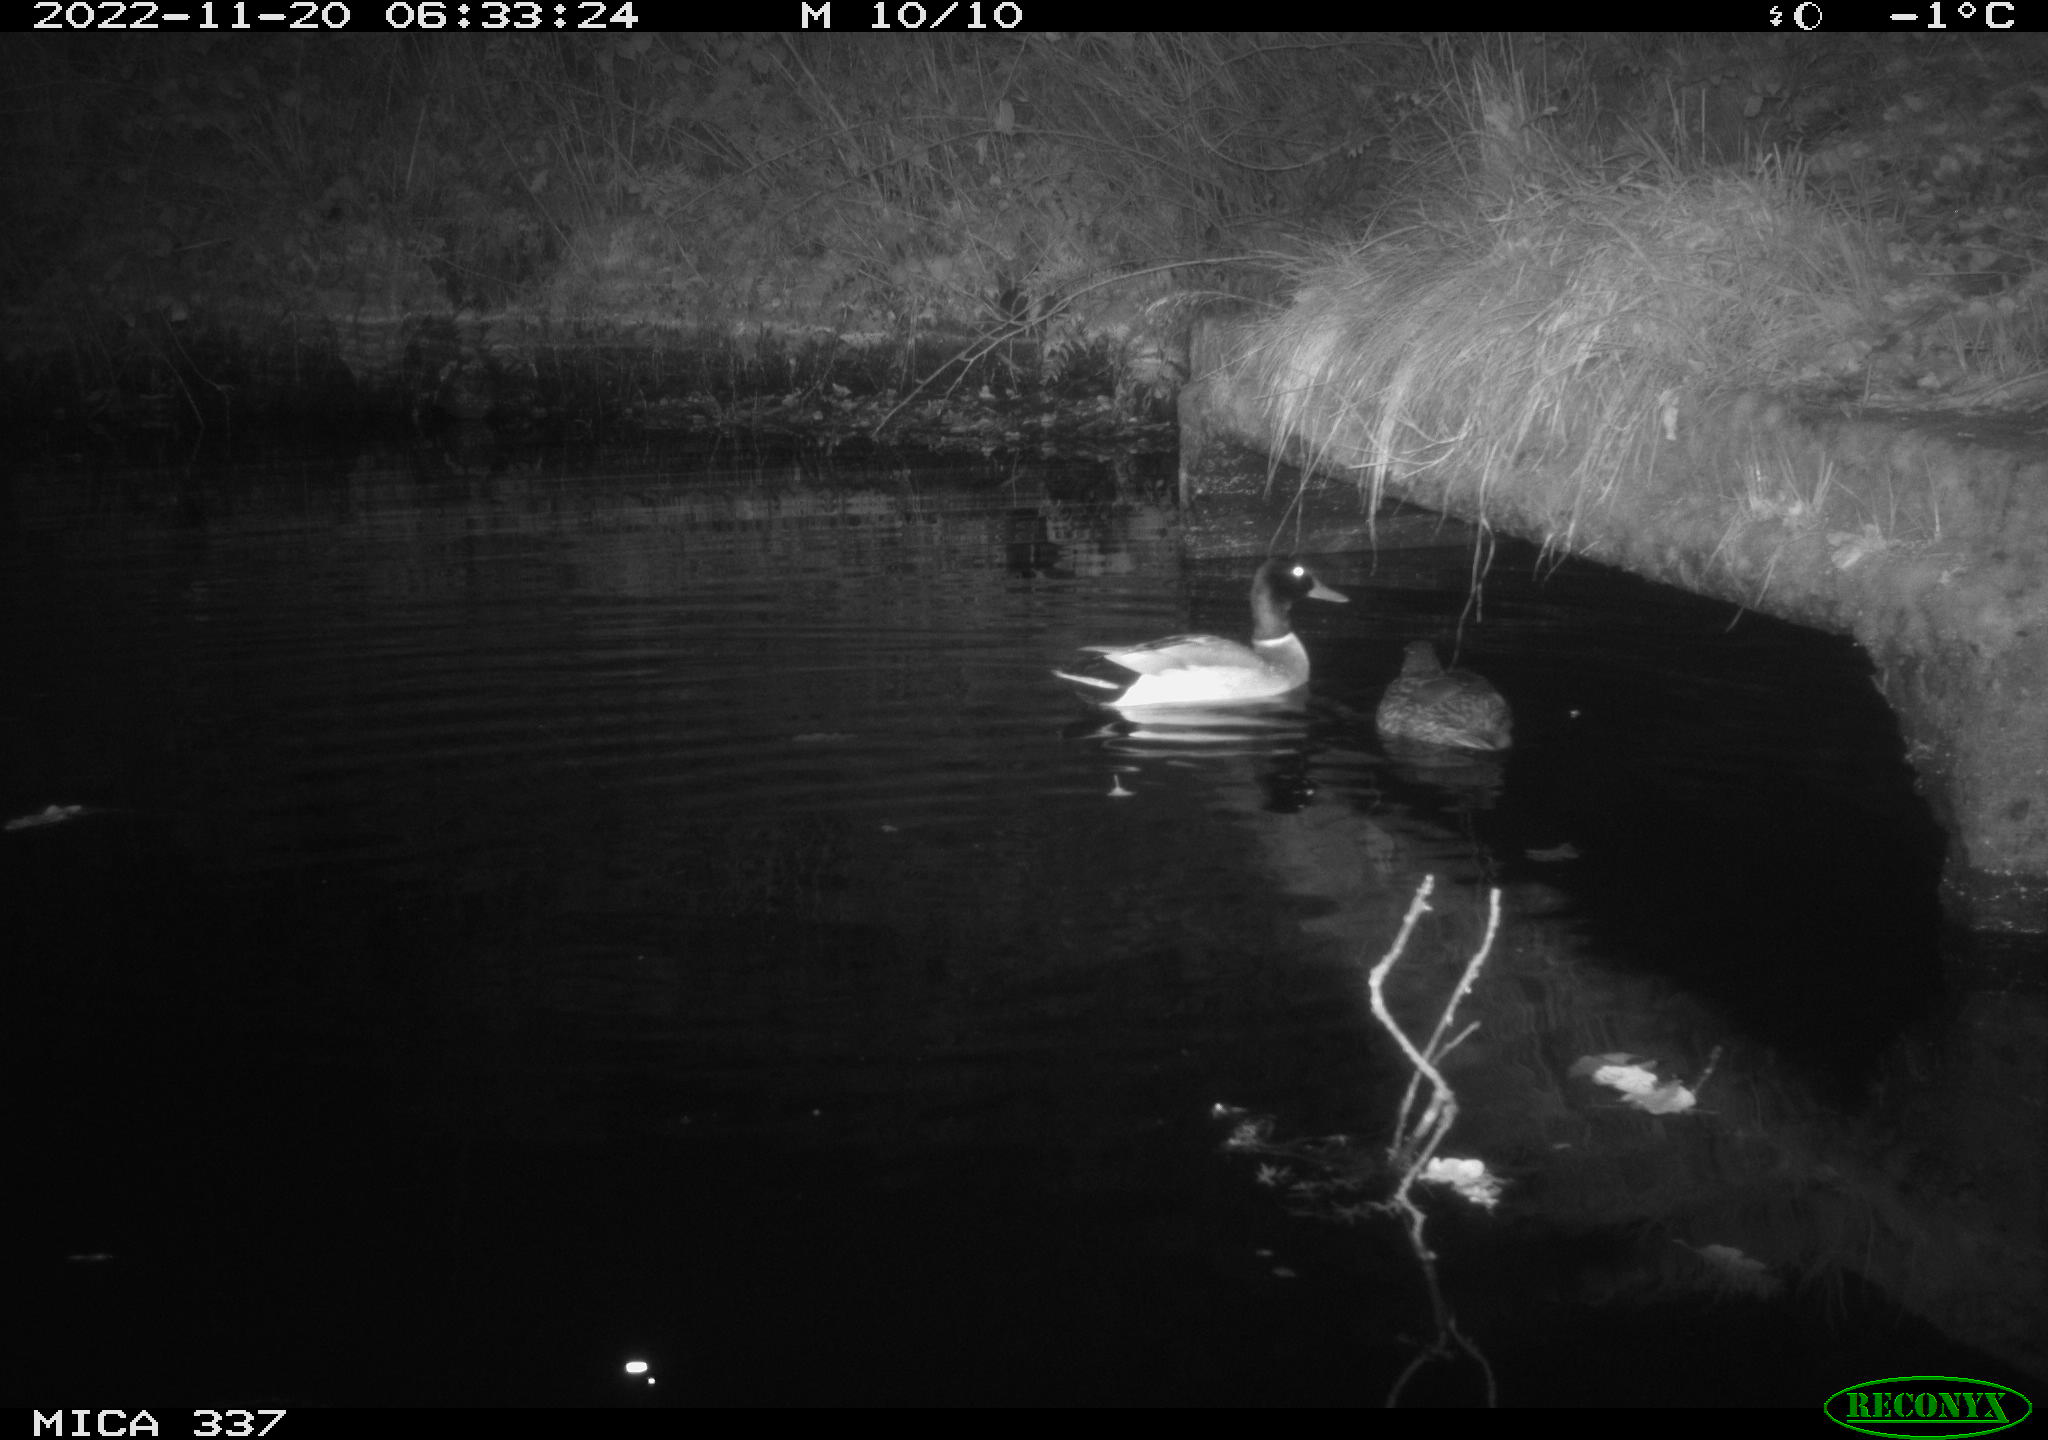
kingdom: Animalia
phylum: Chordata
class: Aves
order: Anseriformes
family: Anatidae
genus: Anas
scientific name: Anas platyrhynchos
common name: Mallard
